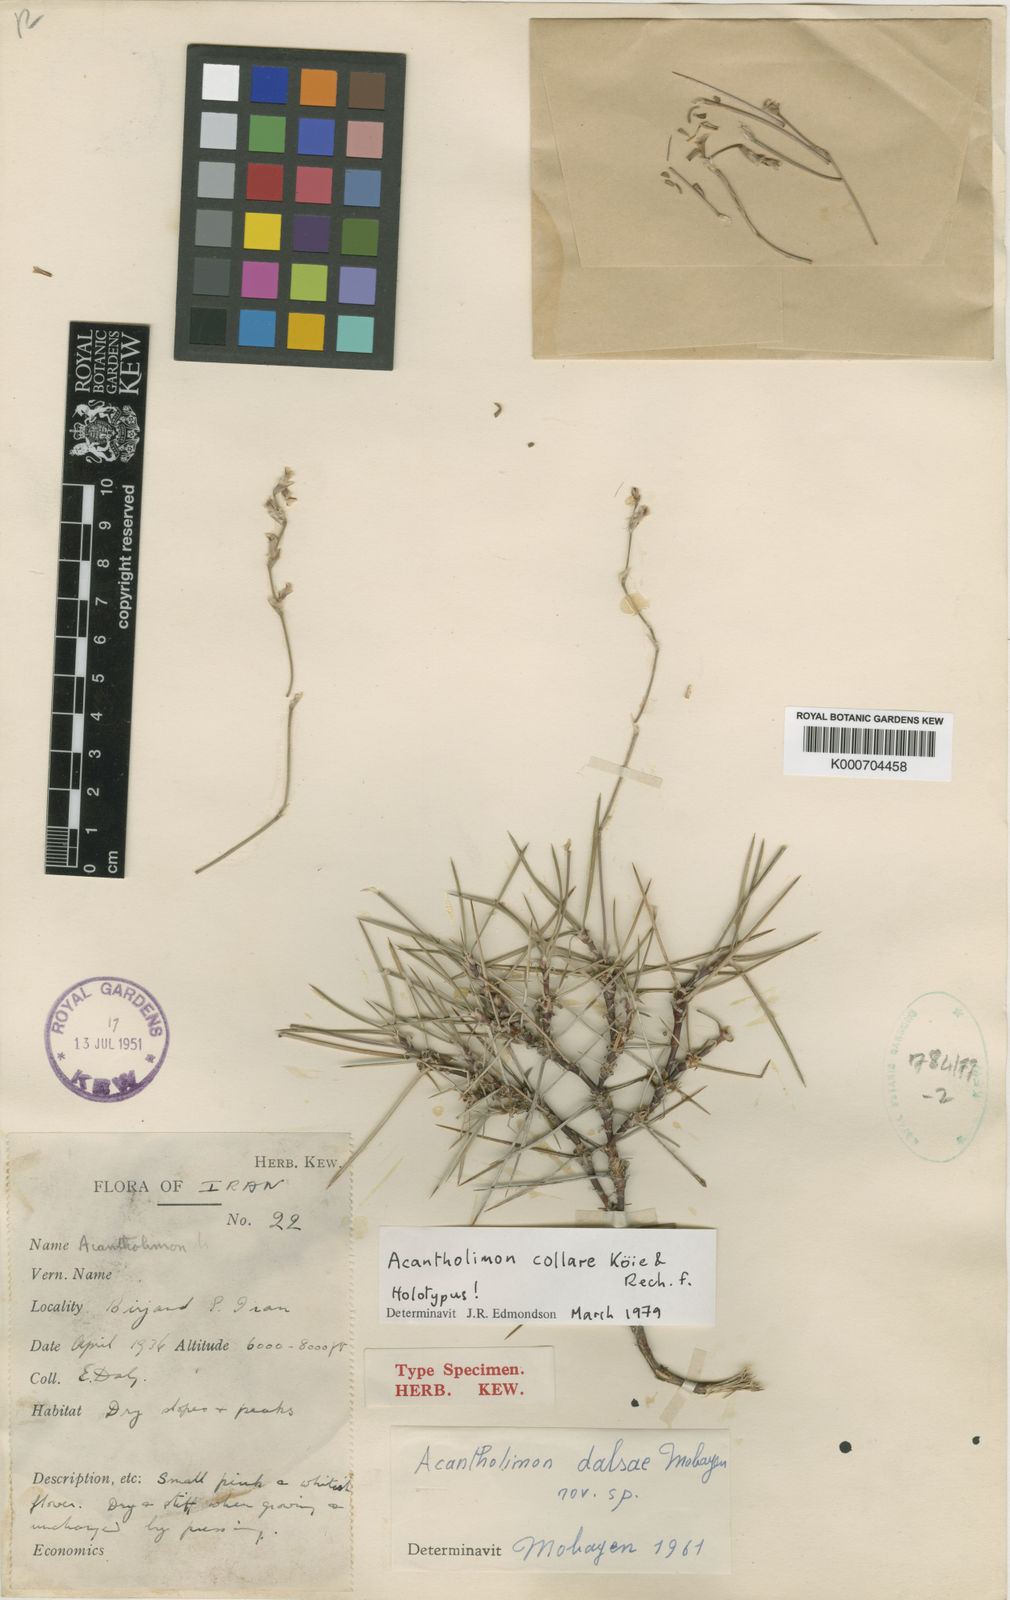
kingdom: Plantae
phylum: Tracheophyta
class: Magnoliopsida
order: Caryophyllales
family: Plumbaginaceae
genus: Acantholimon
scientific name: Acantholimon
